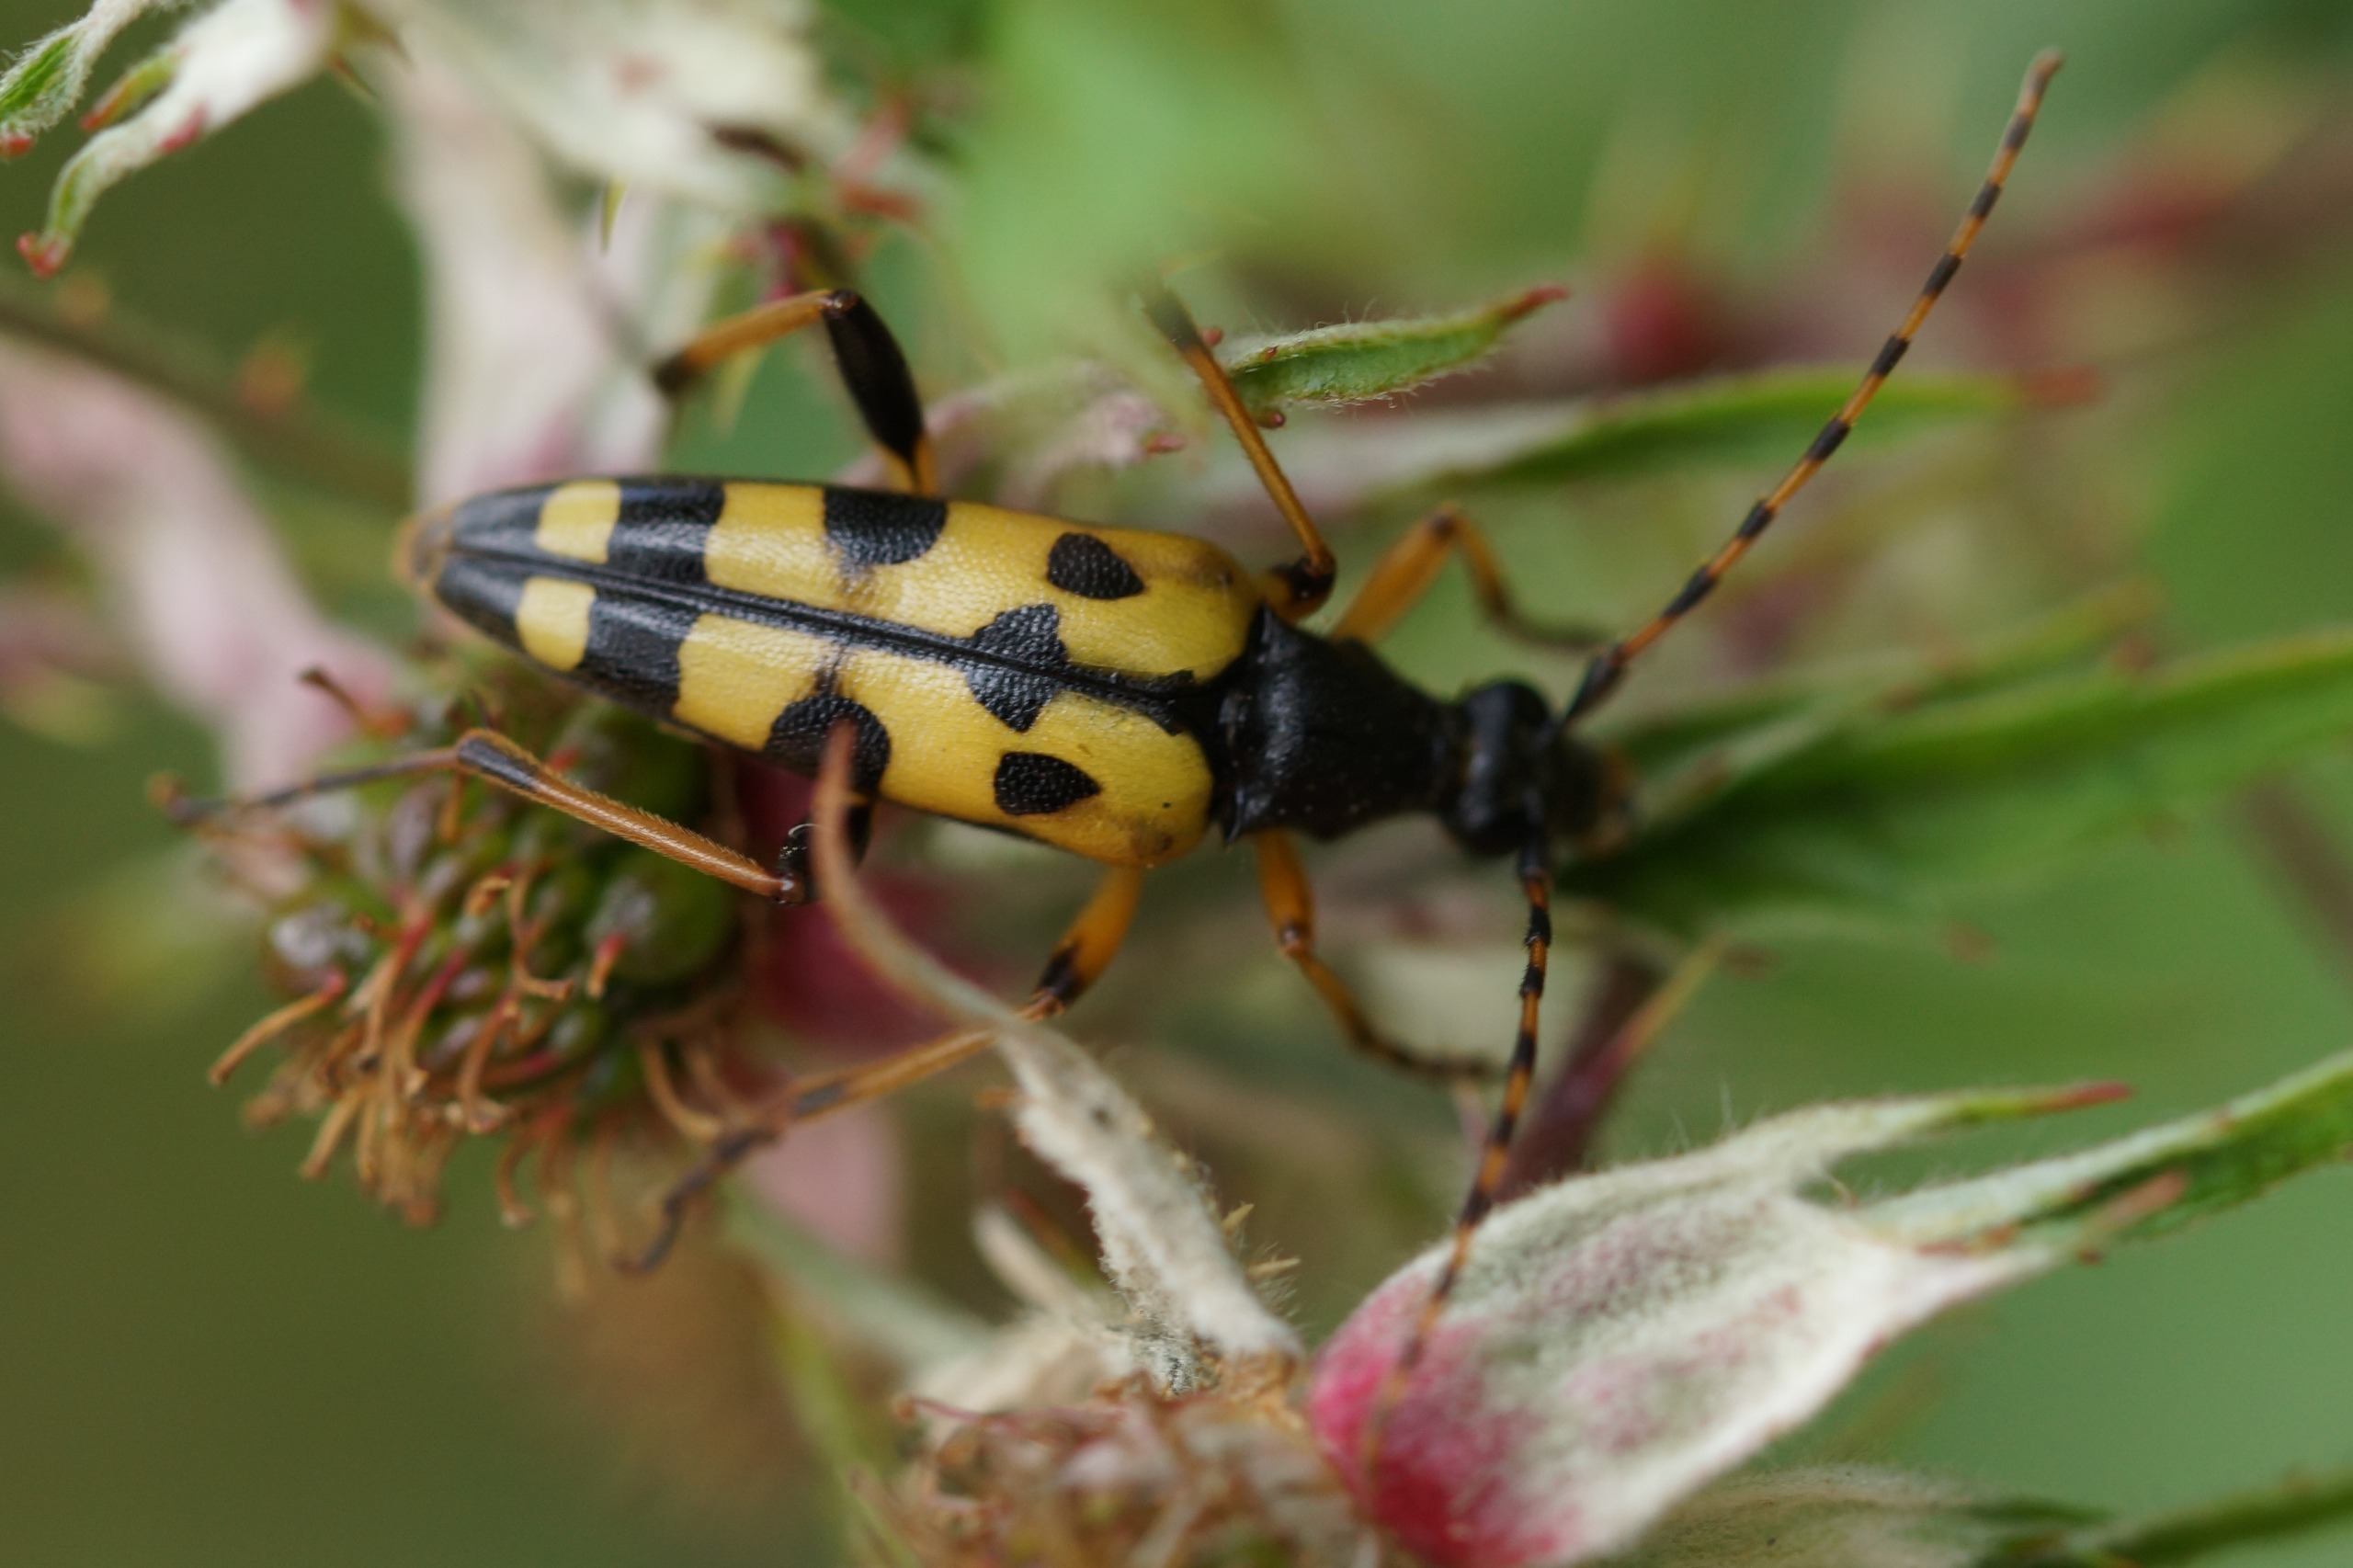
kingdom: Animalia
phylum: Arthropoda
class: Insecta
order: Coleoptera
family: Cerambycidae
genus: Rutpela
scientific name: Rutpela maculata
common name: Sydlig blomsterbuk
